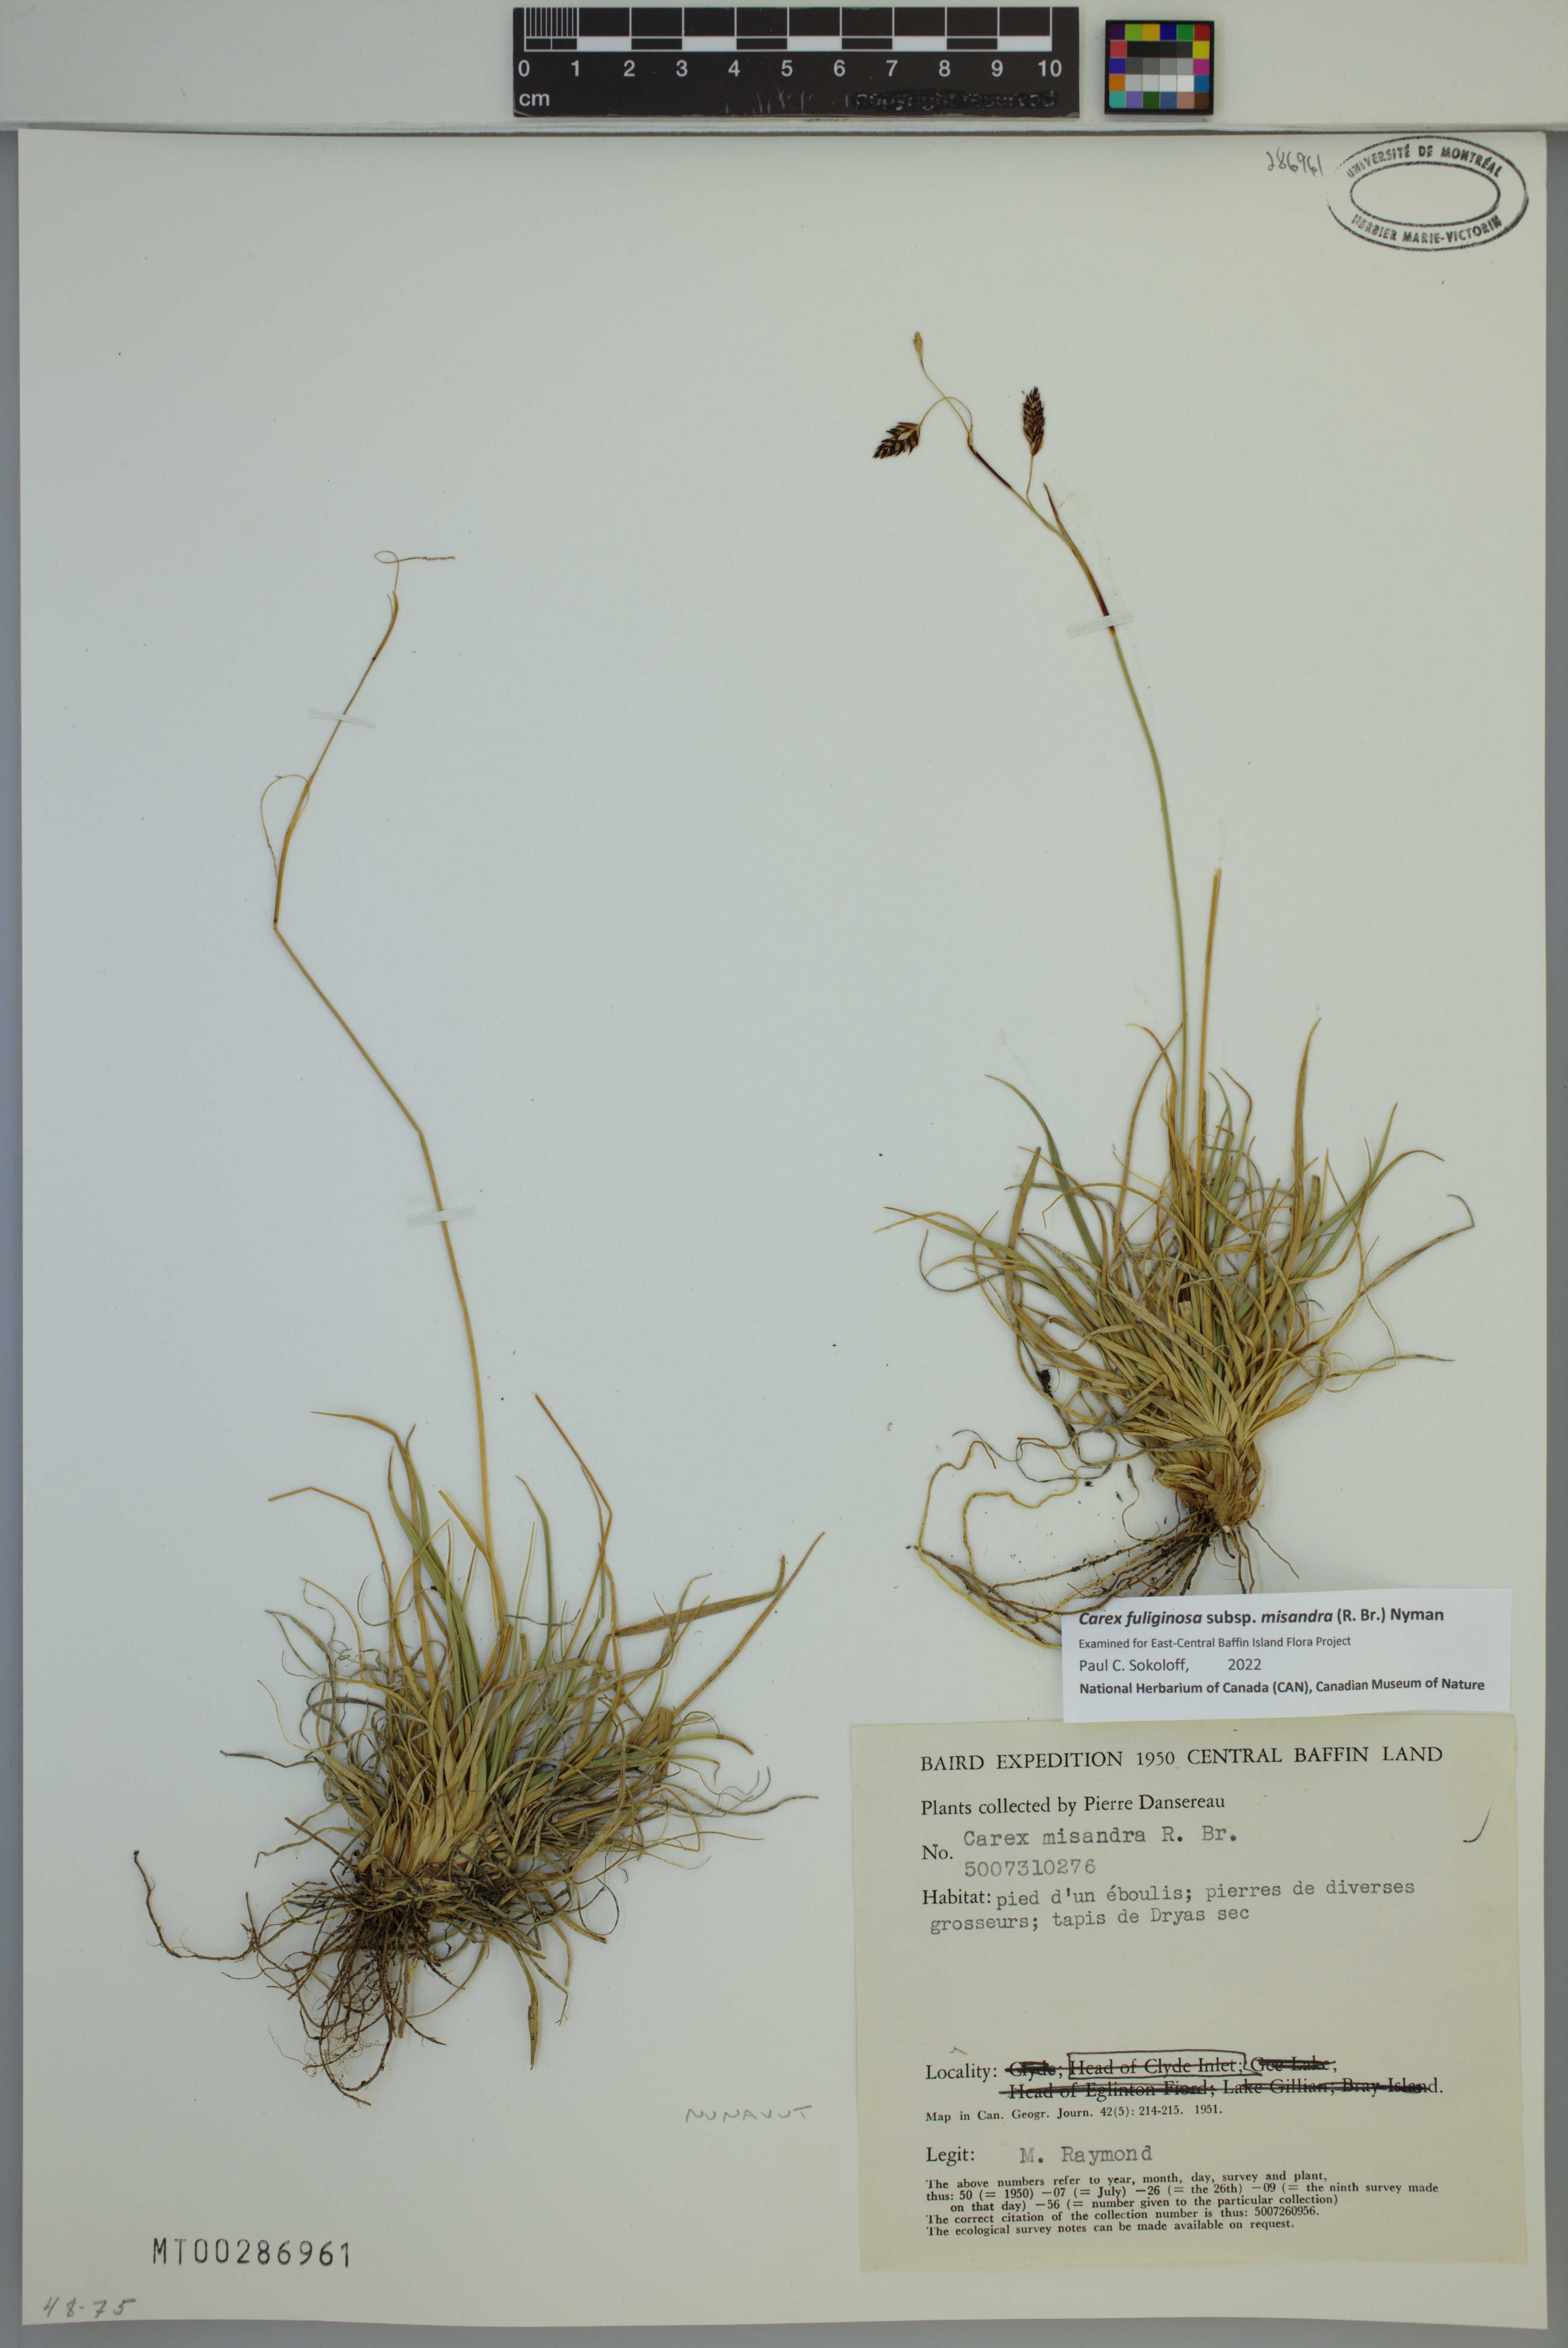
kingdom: Plantae
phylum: Tracheophyta
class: Liliopsida
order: Poales
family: Cyperaceae
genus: Carex
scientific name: Carex fuliginosa
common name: Few-flowered sedge
